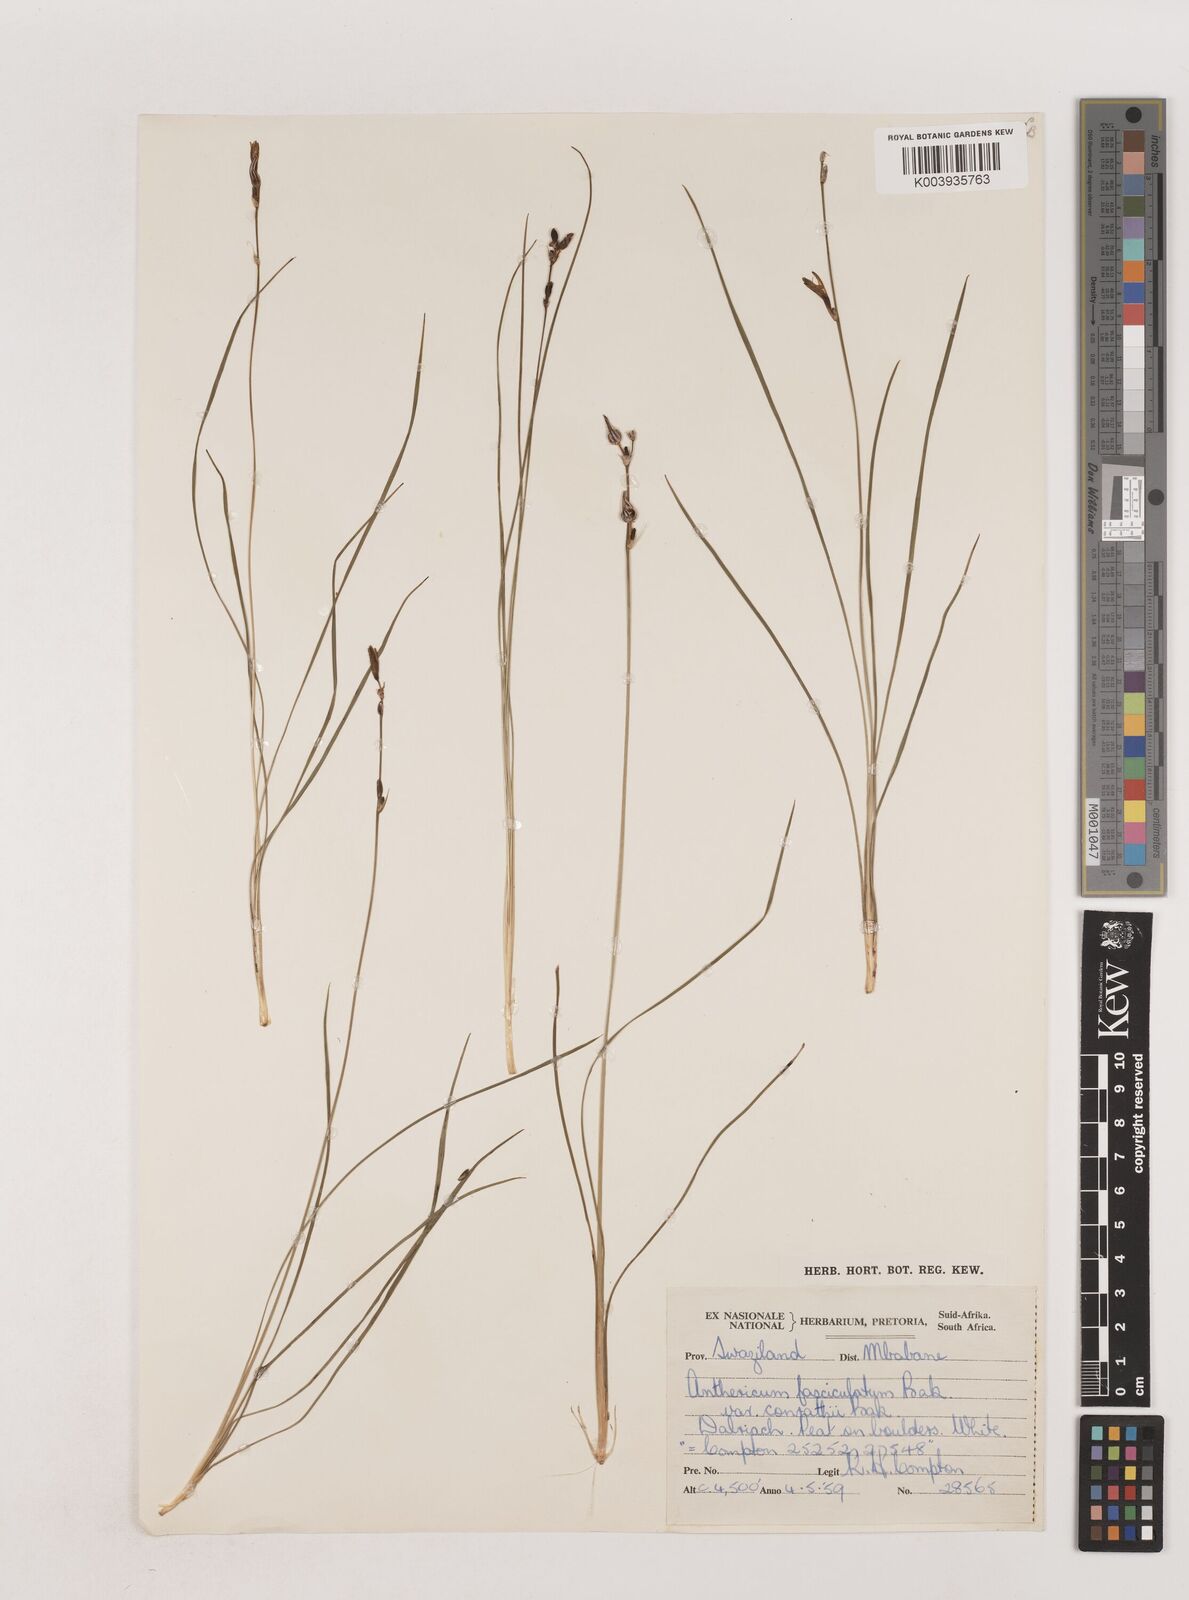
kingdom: Plantae
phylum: Tracheophyta
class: Liliopsida
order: Asparagales
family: Asparagaceae
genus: Chlorophytum
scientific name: Chlorophytum fasciculatum
